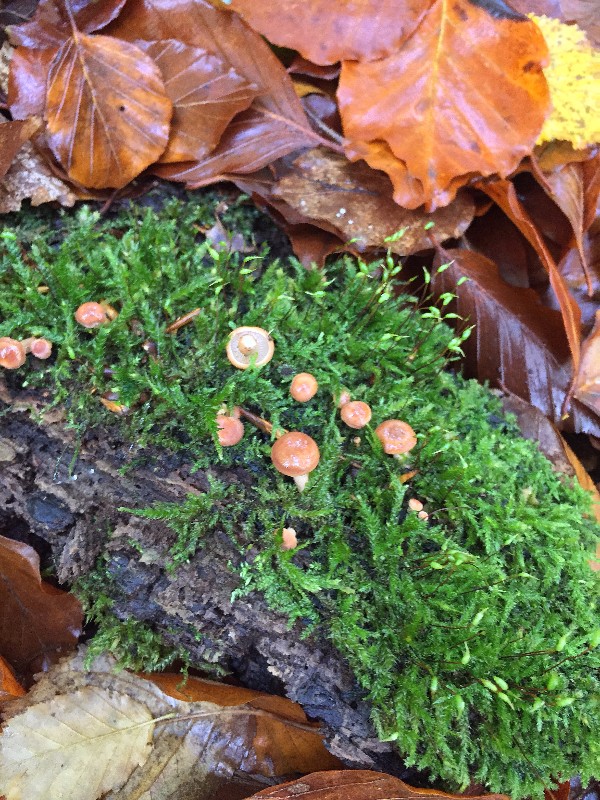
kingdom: Fungi
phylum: Basidiomycota
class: Agaricomycetes
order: Russulales
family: Russulaceae
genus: Lactarius
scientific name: Lactarius
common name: mælkehat
